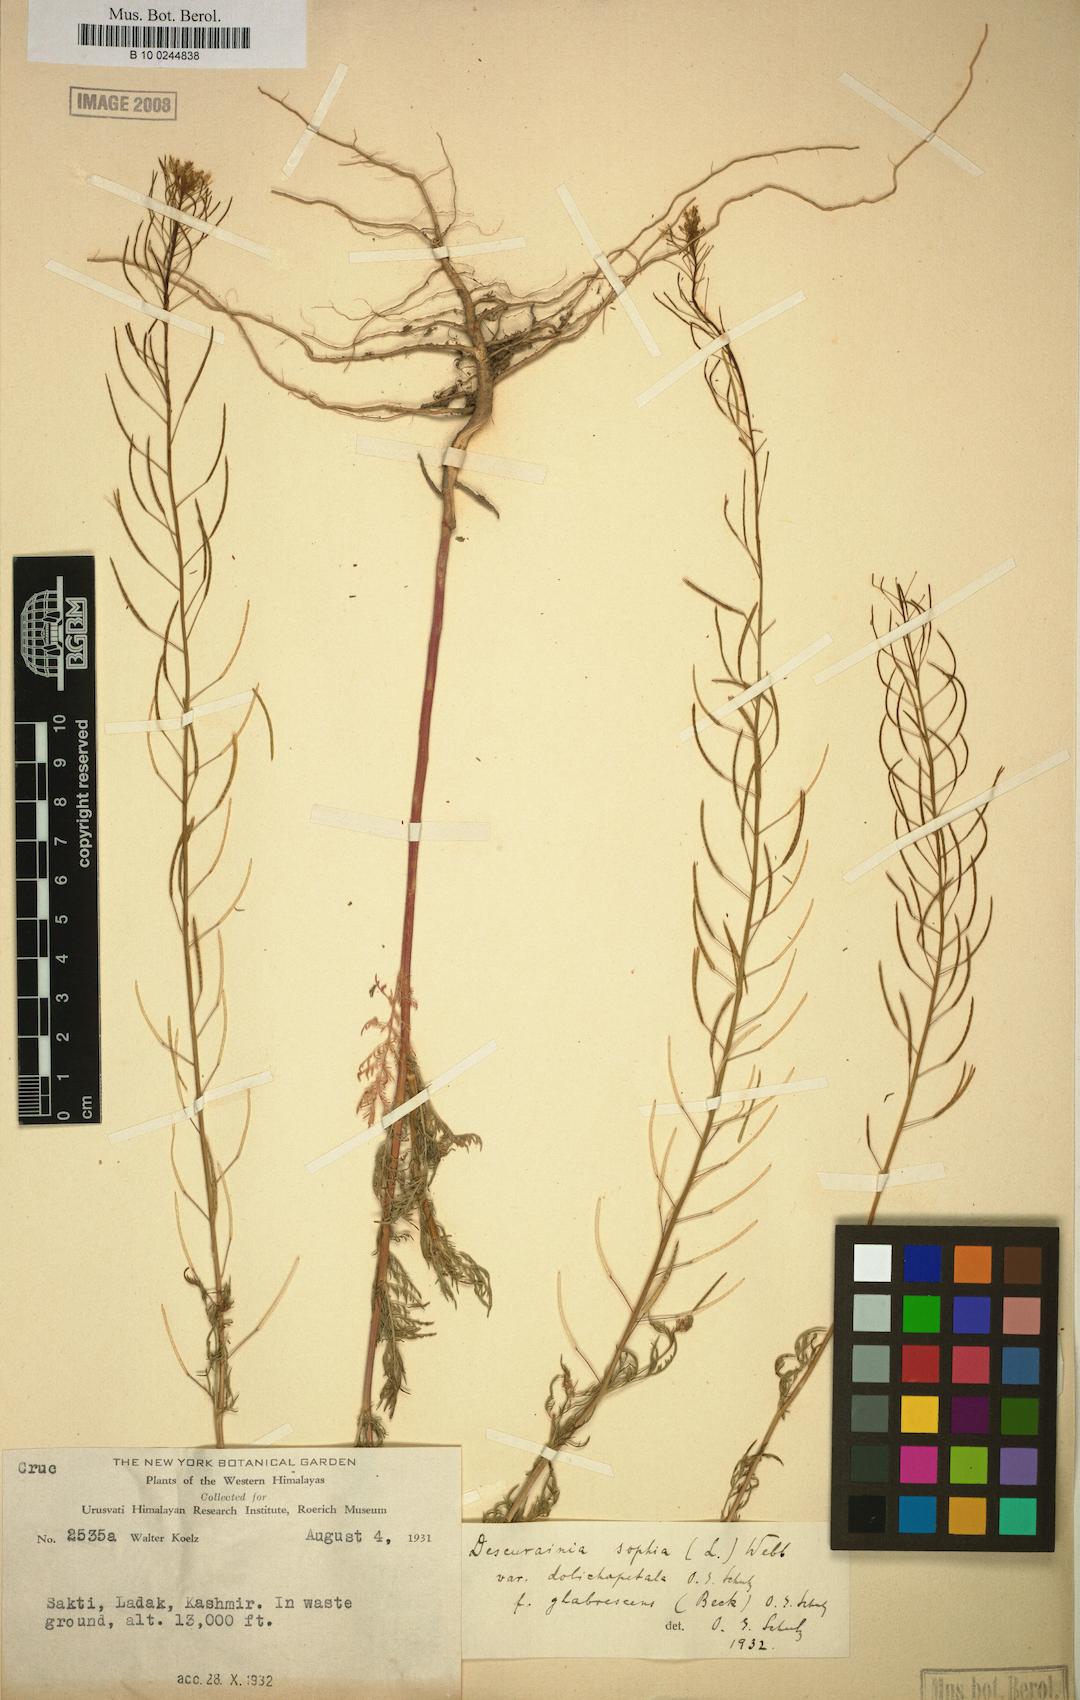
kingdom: Plantae
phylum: Tracheophyta
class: Magnoliopsida
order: Brassicales
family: Brassicaceae
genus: Descurainia
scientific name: Descurainia sophia
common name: Flixweed
